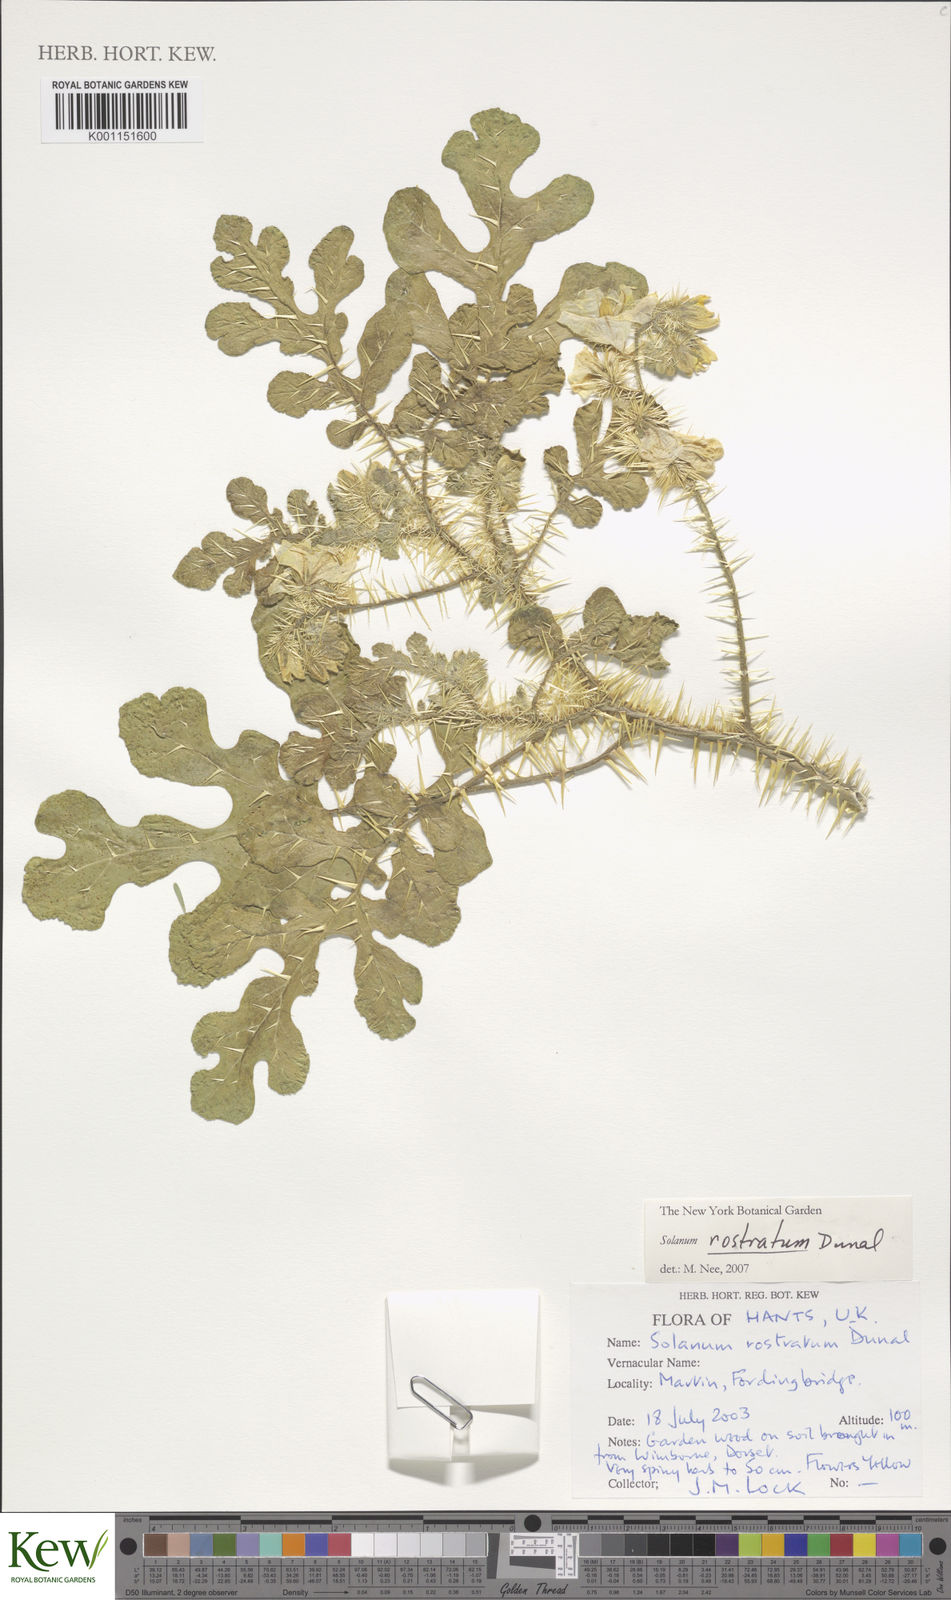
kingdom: Plantae
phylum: Tracheophyta
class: Magnoliopsida
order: Solanales
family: Solanaceae
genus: Solanum
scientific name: Solanum angustifolium
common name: Buffalobur nightshade
